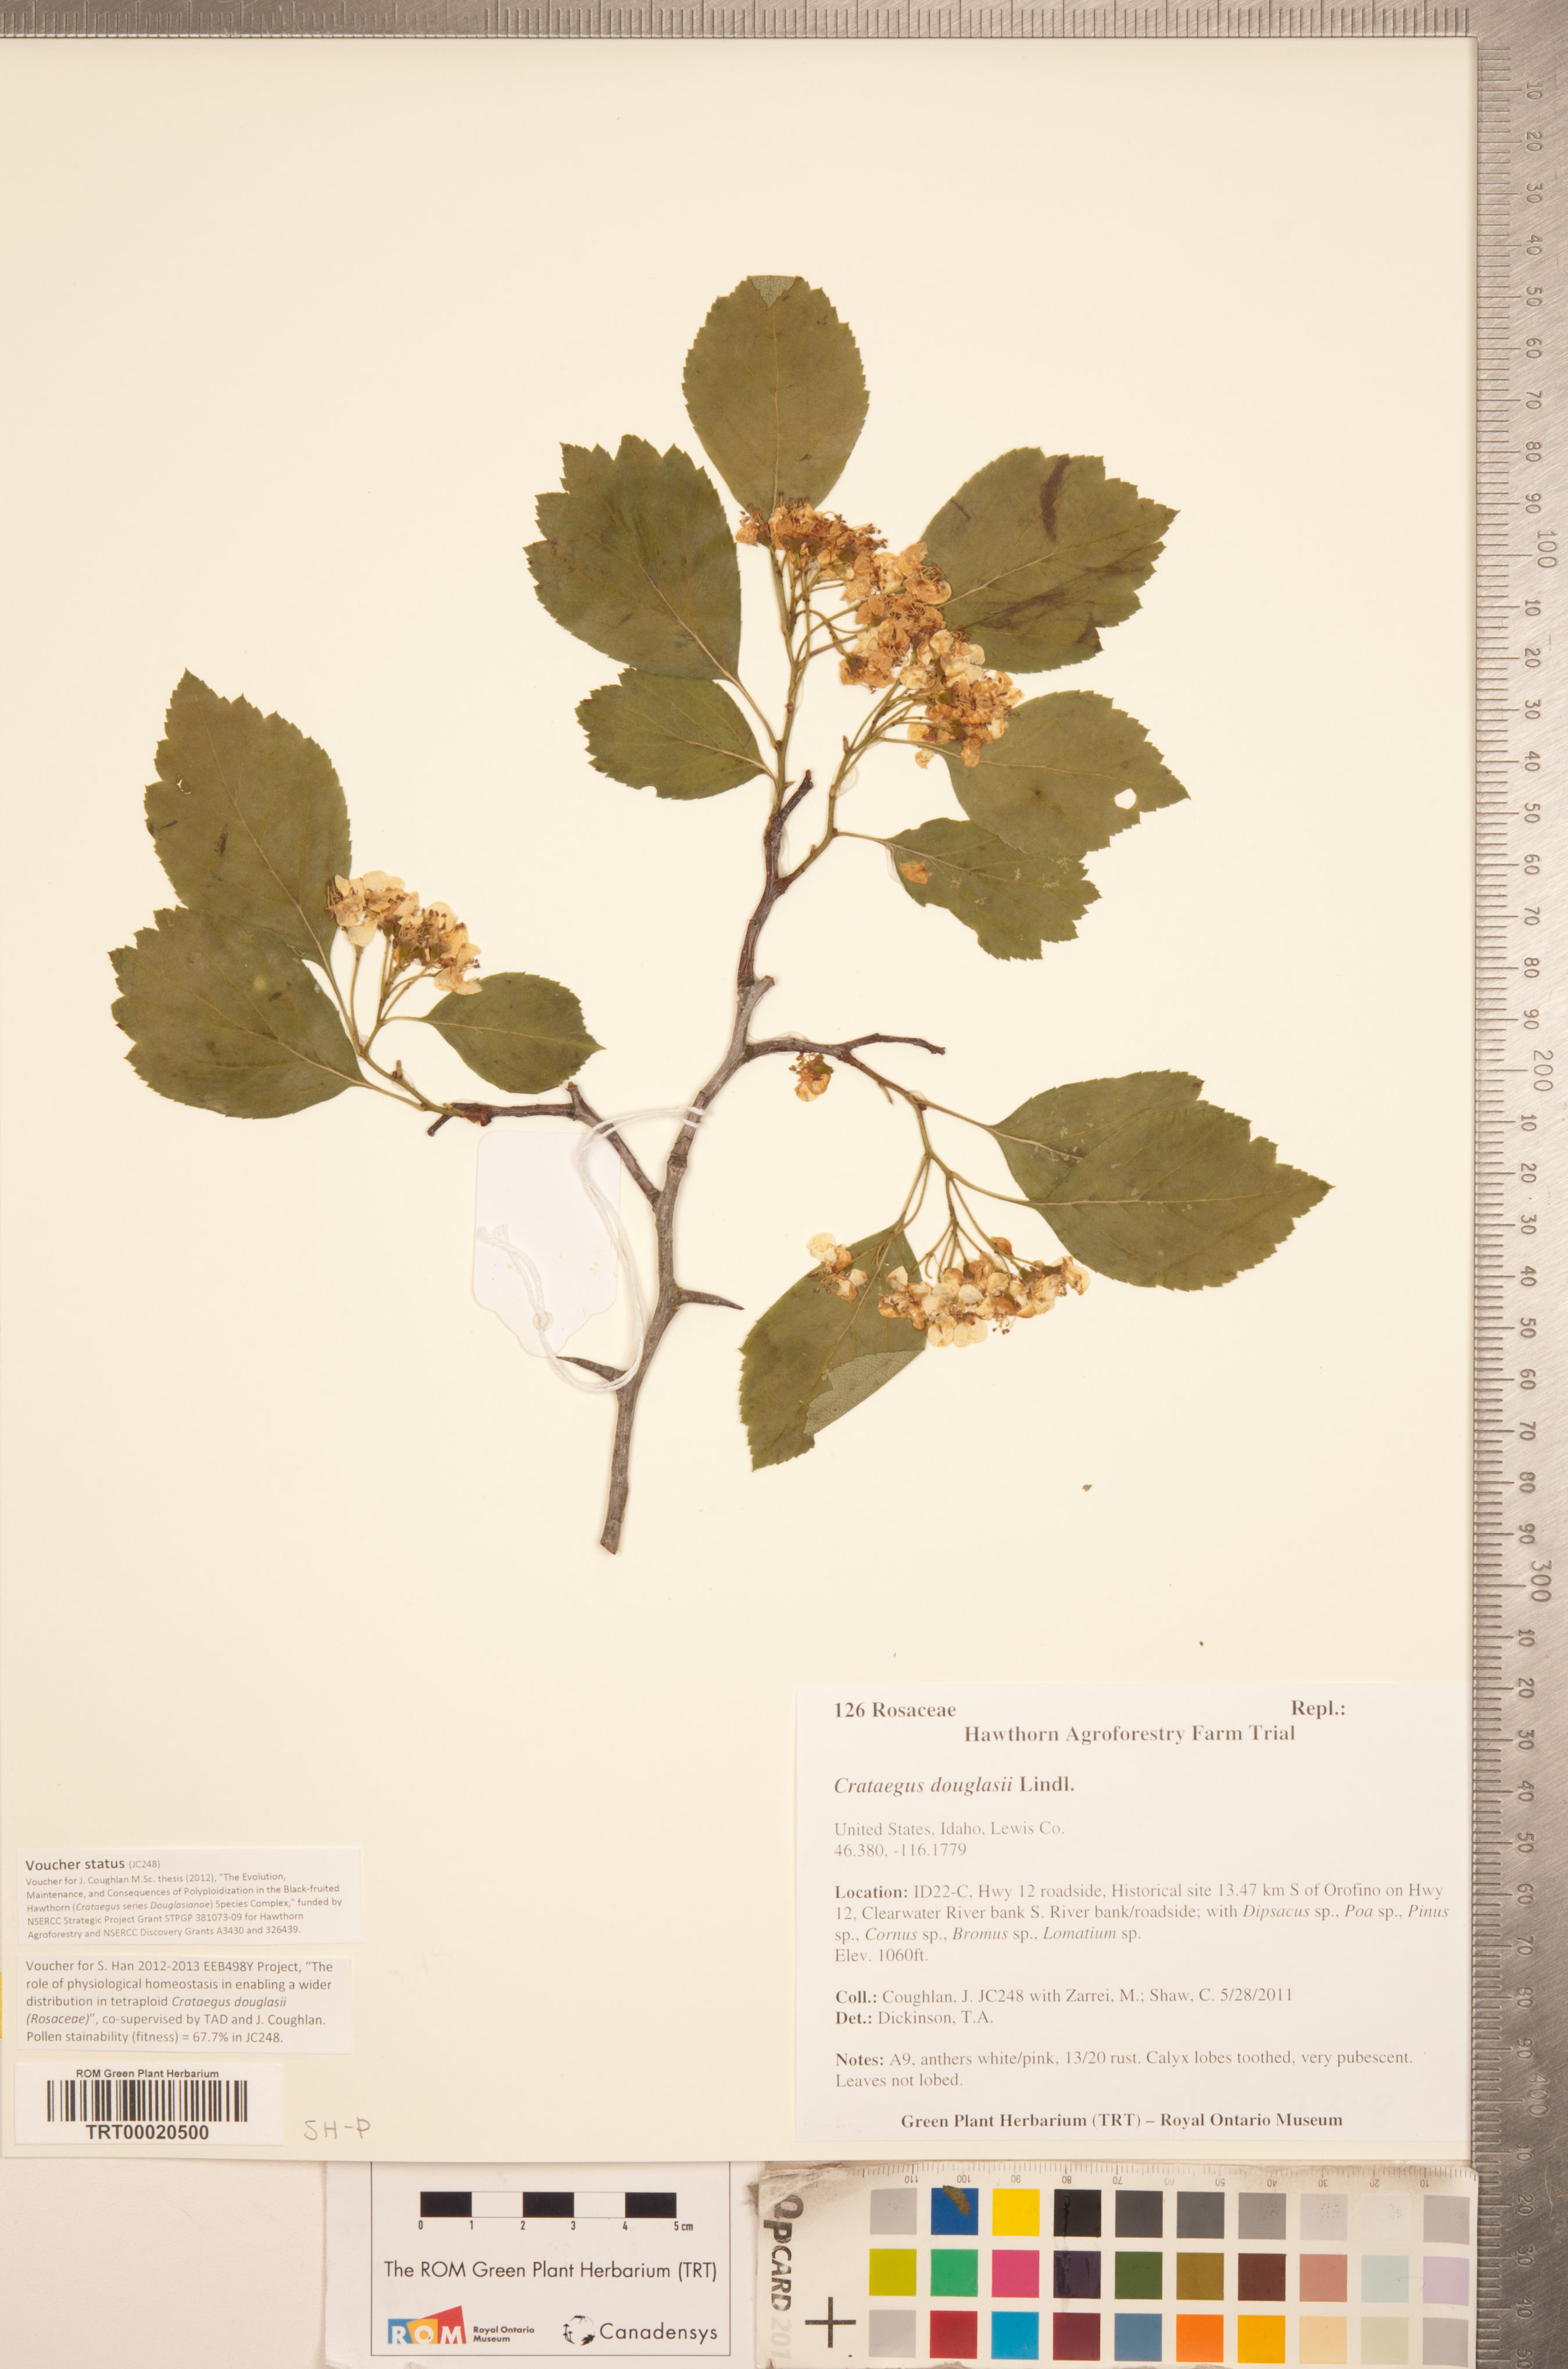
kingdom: Plantae
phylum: Tracheophyta
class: Magnoliopsida
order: Rosales
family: Rosaceae
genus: Crataegus
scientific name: Crataegus douglasii
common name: Black hawthorn
